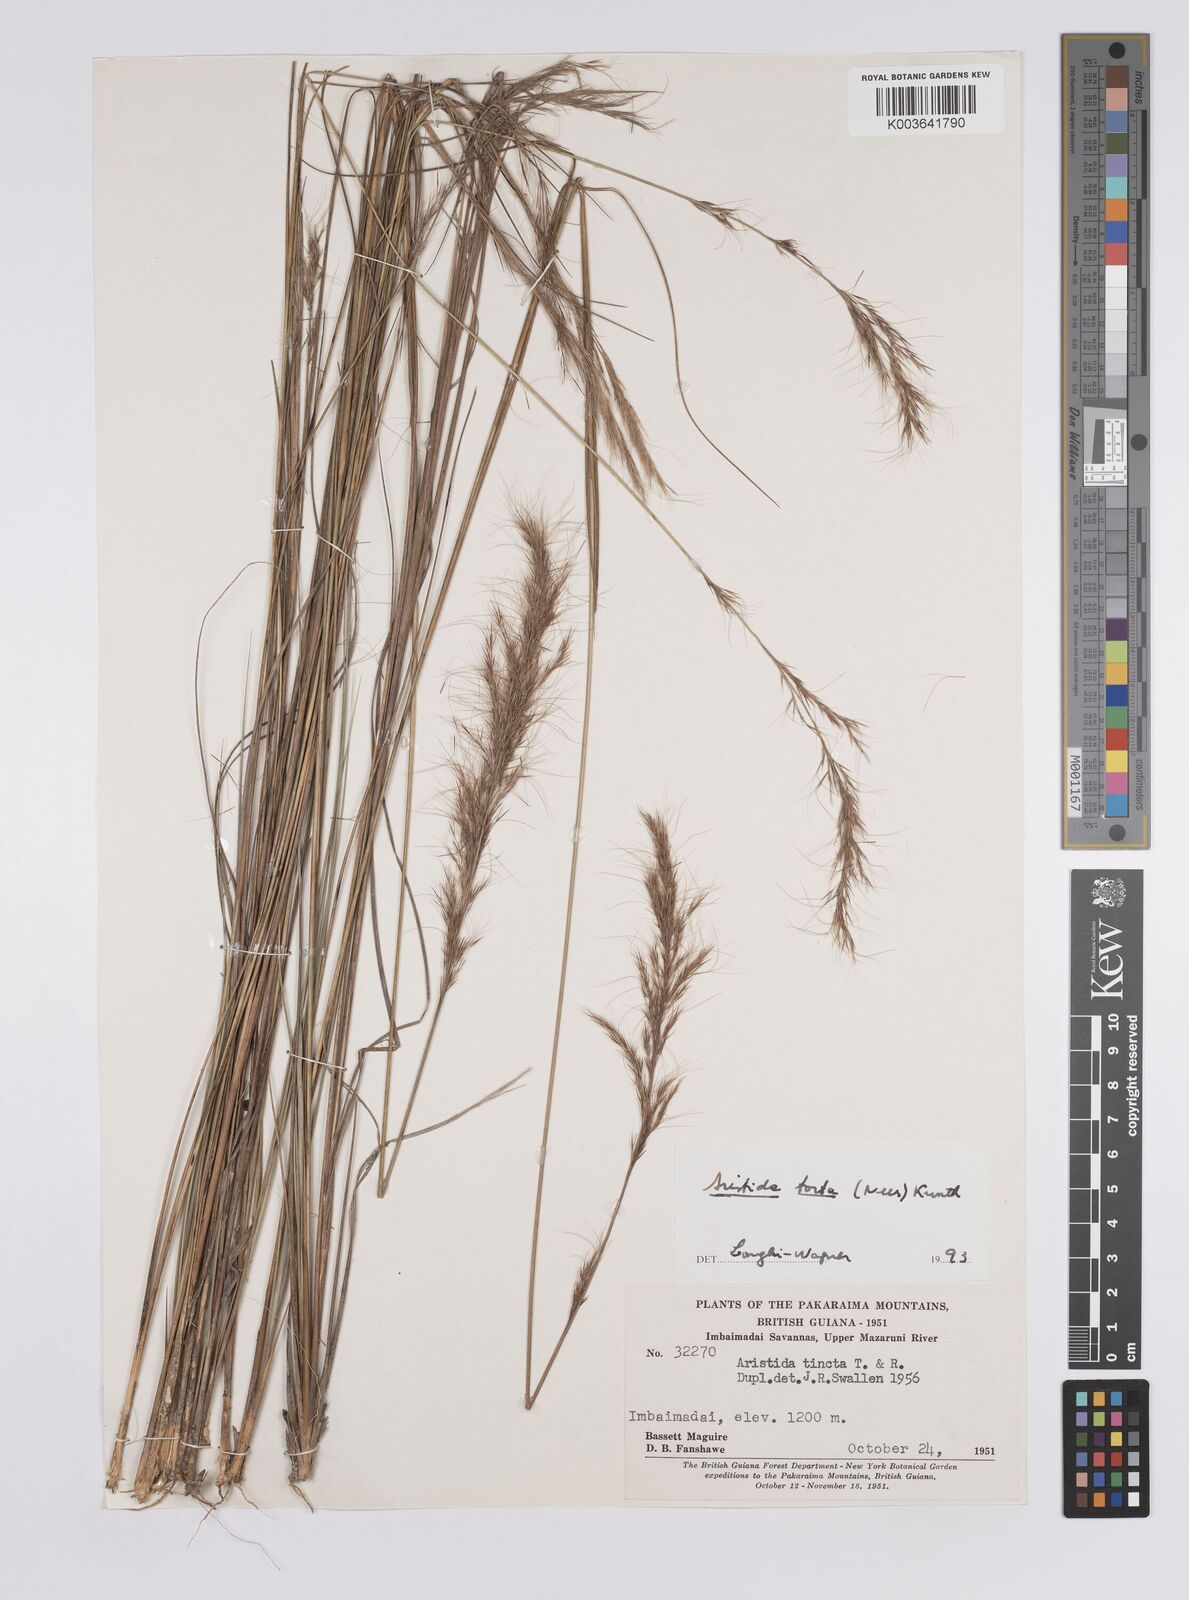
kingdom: Plantae
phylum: Tracheophyta
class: Liliopsida
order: Poales
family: Poaceae
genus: Aristida
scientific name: Aristida torta
